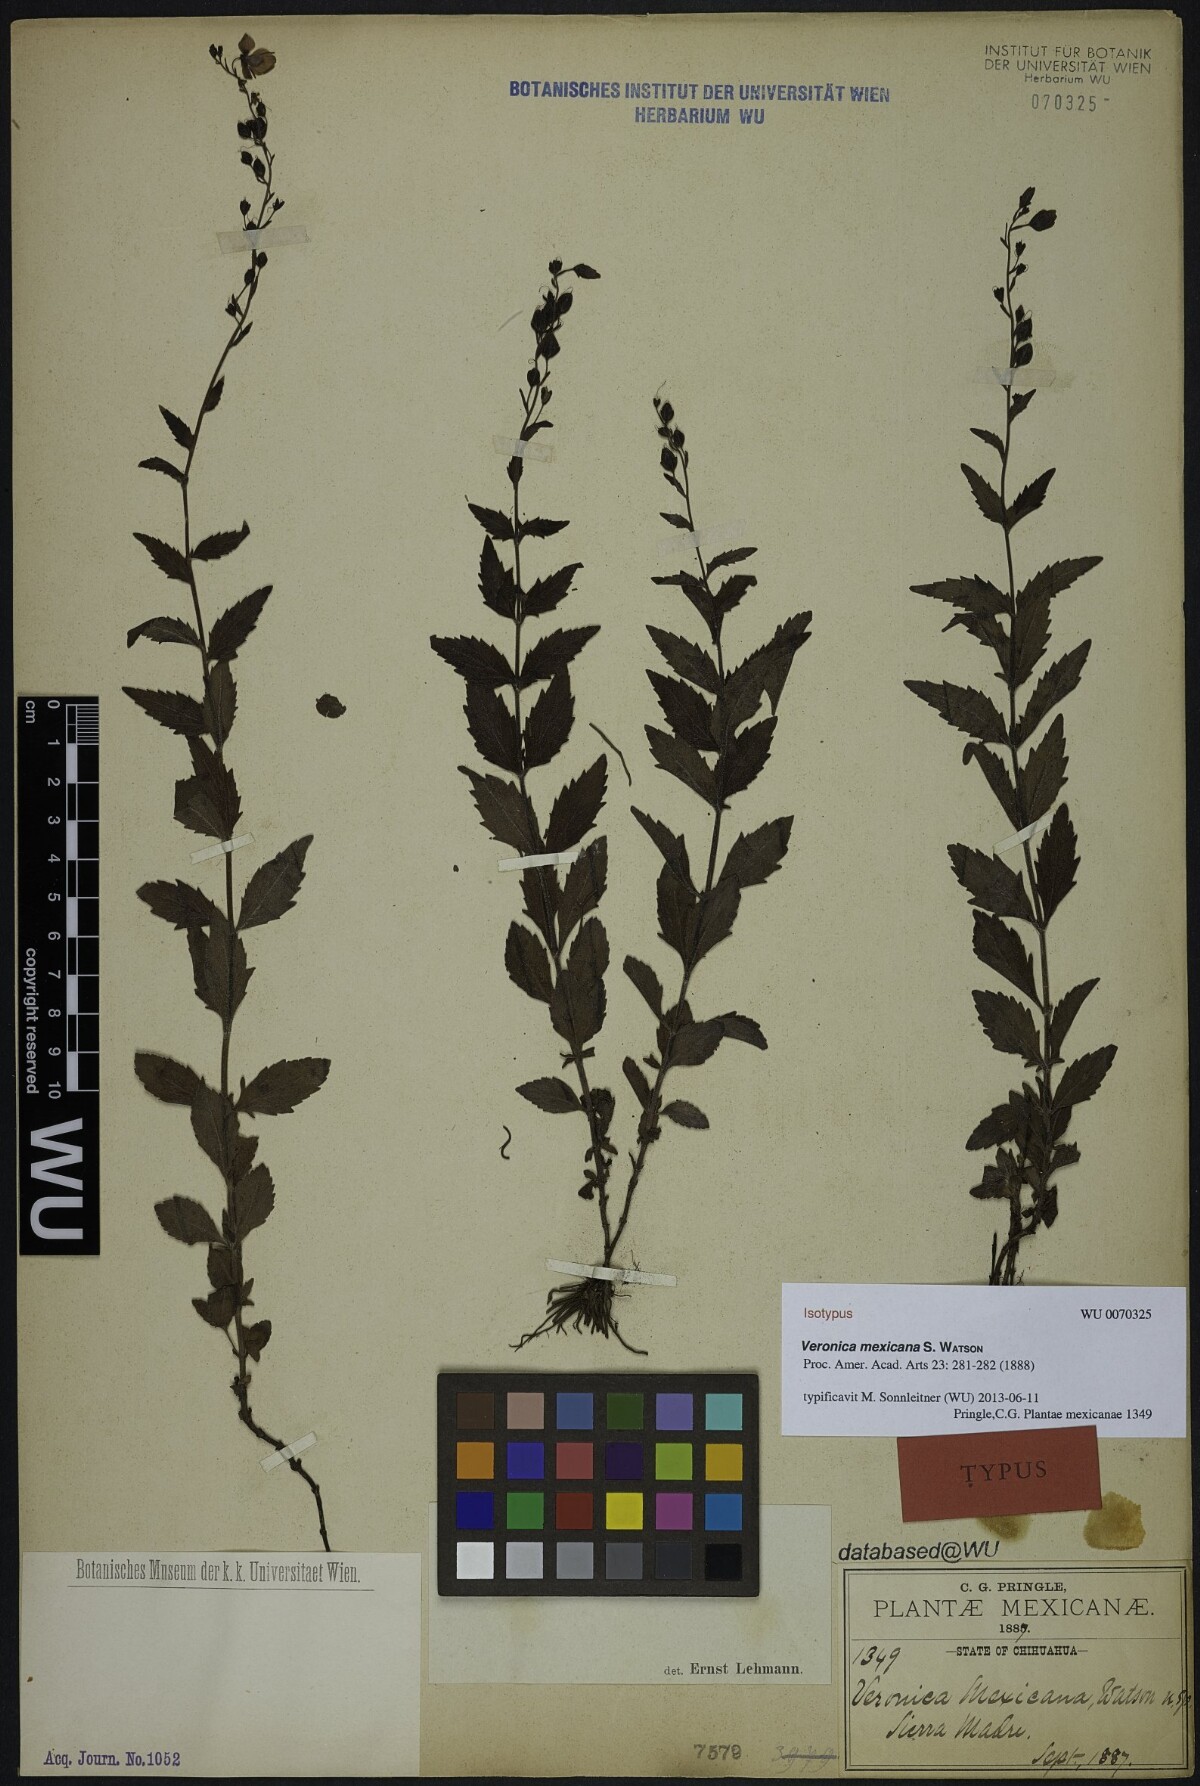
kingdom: Plantae
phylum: Tracheophyta
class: Magnoliopsida
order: Lamiales
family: Plantaginaceae
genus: Veronica
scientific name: Veronica mexicana
